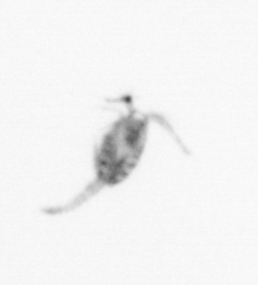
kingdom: Animalia
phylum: Arthropoda
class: Copepoda
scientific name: Copepoda
